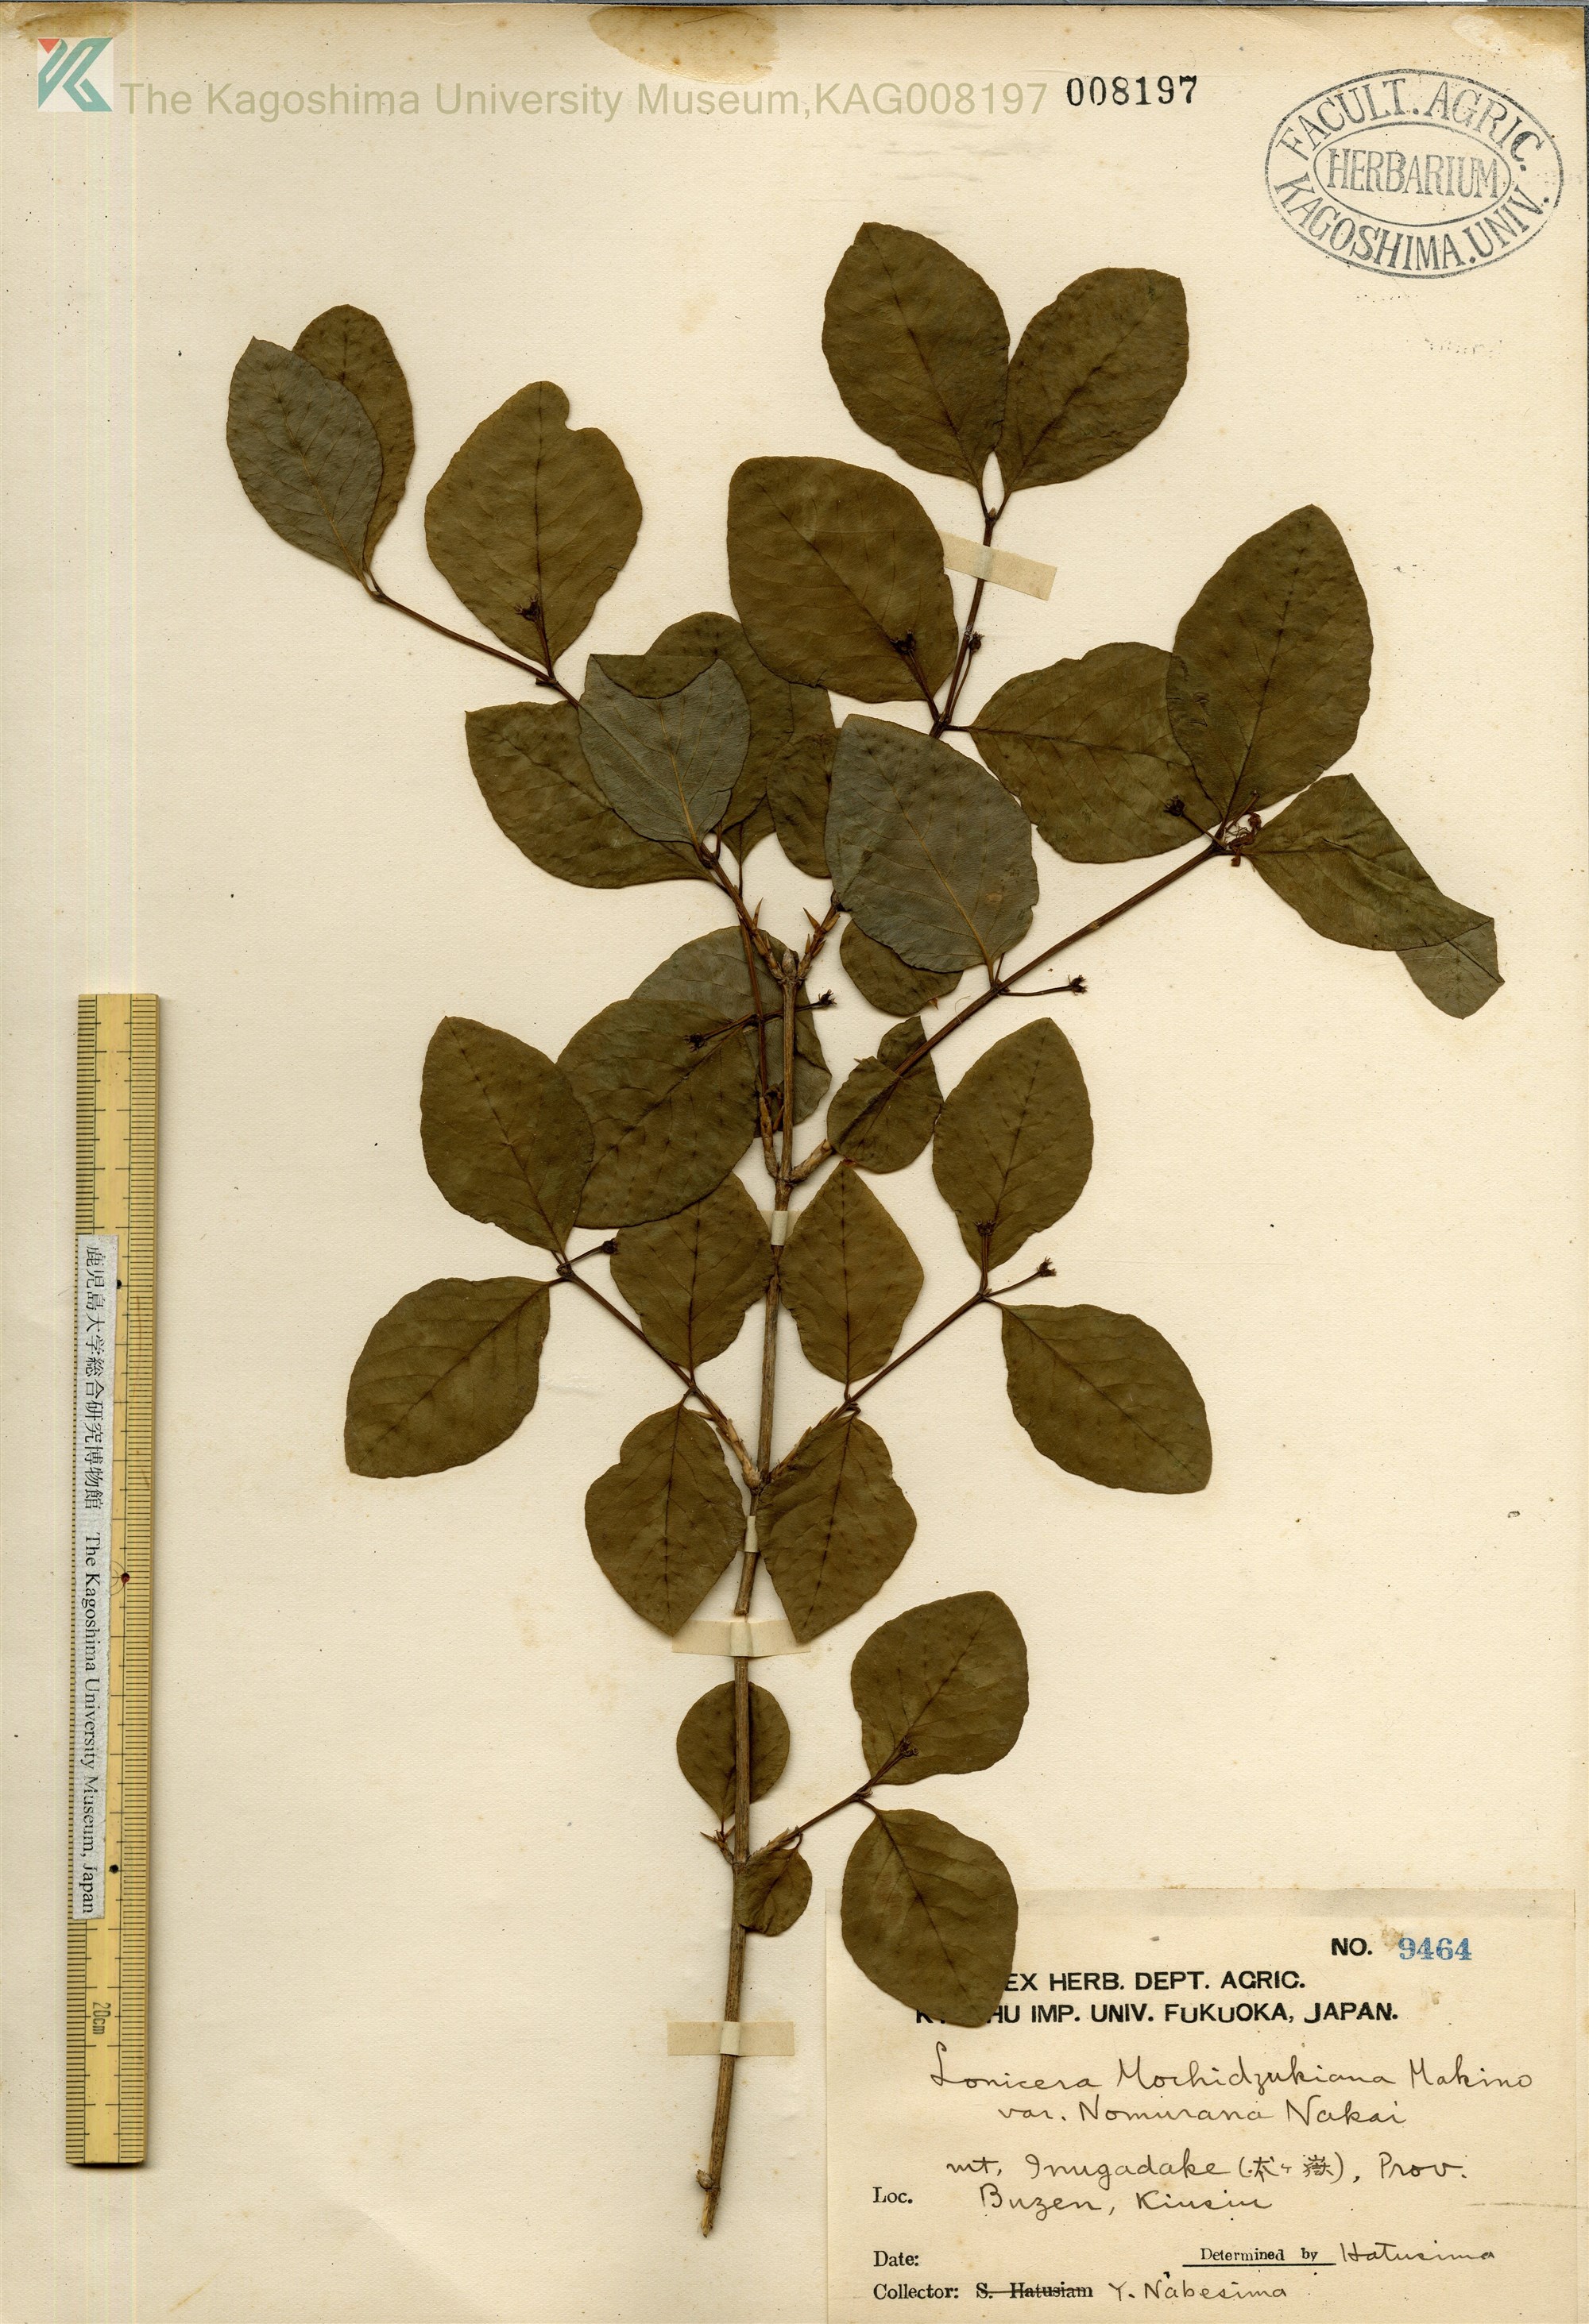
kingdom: Plantae
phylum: Tracheophyta
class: Magnoliopsida
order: Dipsacales
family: Caprifoliaceae
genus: Lonicera
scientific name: Lonicera subhispida
